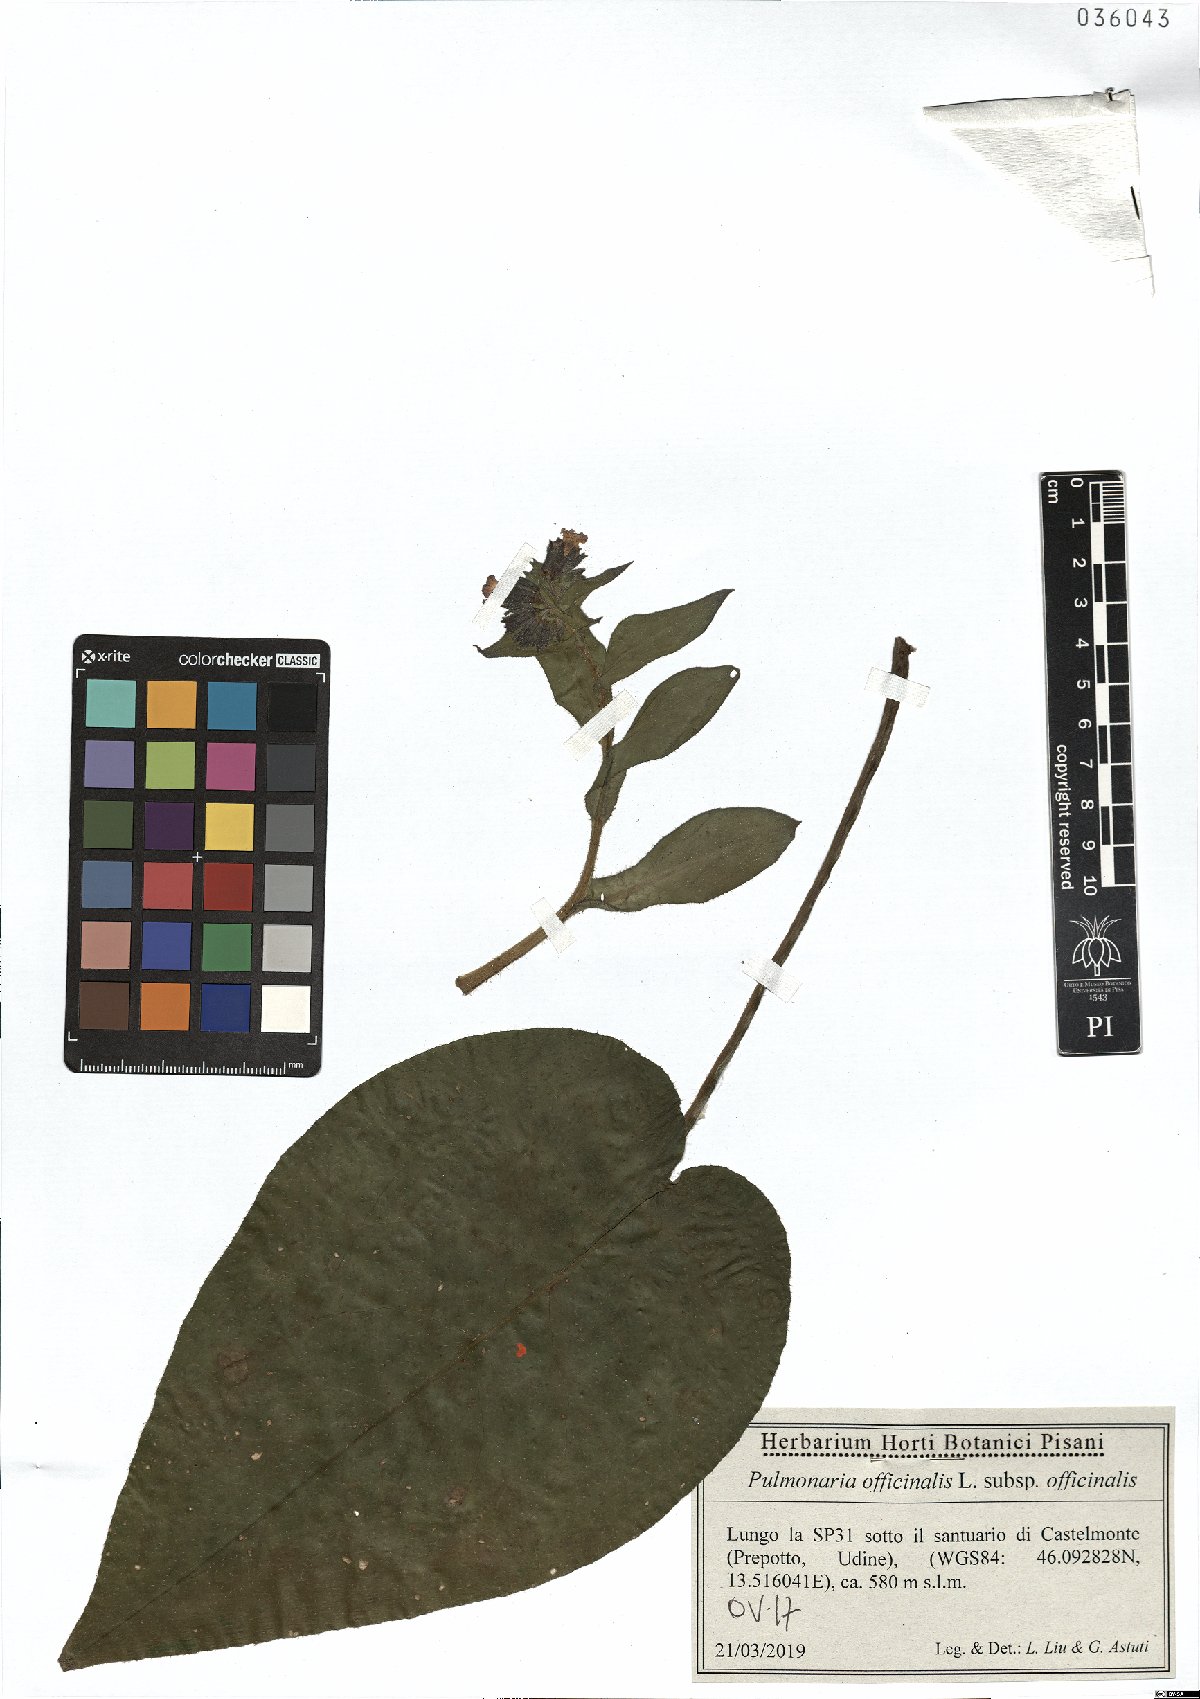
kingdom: Plantae
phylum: Tracheophyta
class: Magnoliopsida
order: Boraginales
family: Boraginaceae
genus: Pulmonaria
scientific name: Pulmonaria officinalis
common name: Lungwort
